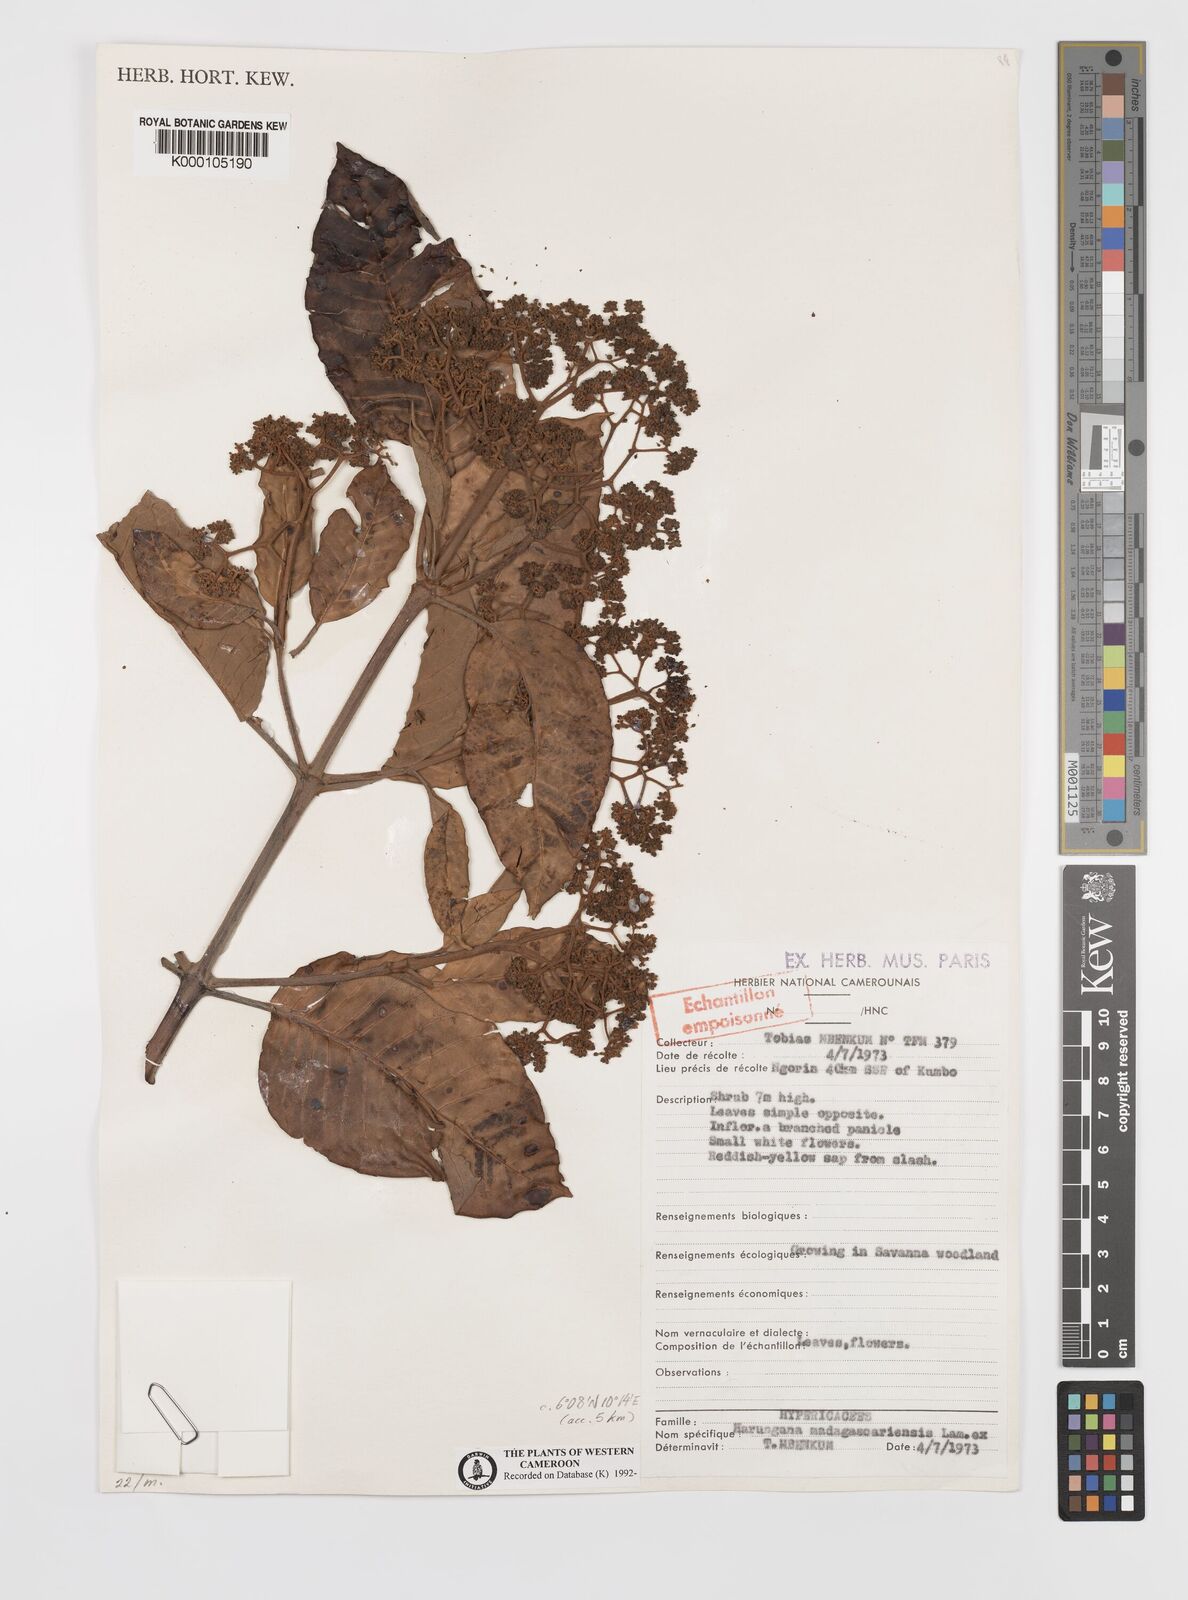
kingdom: Plantae
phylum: Tracheophyta
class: Magnoliopsida
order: Malpighiales
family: Hypericaceae
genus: Harungana
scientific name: Harungana madagascariensis
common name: Orange milktree
